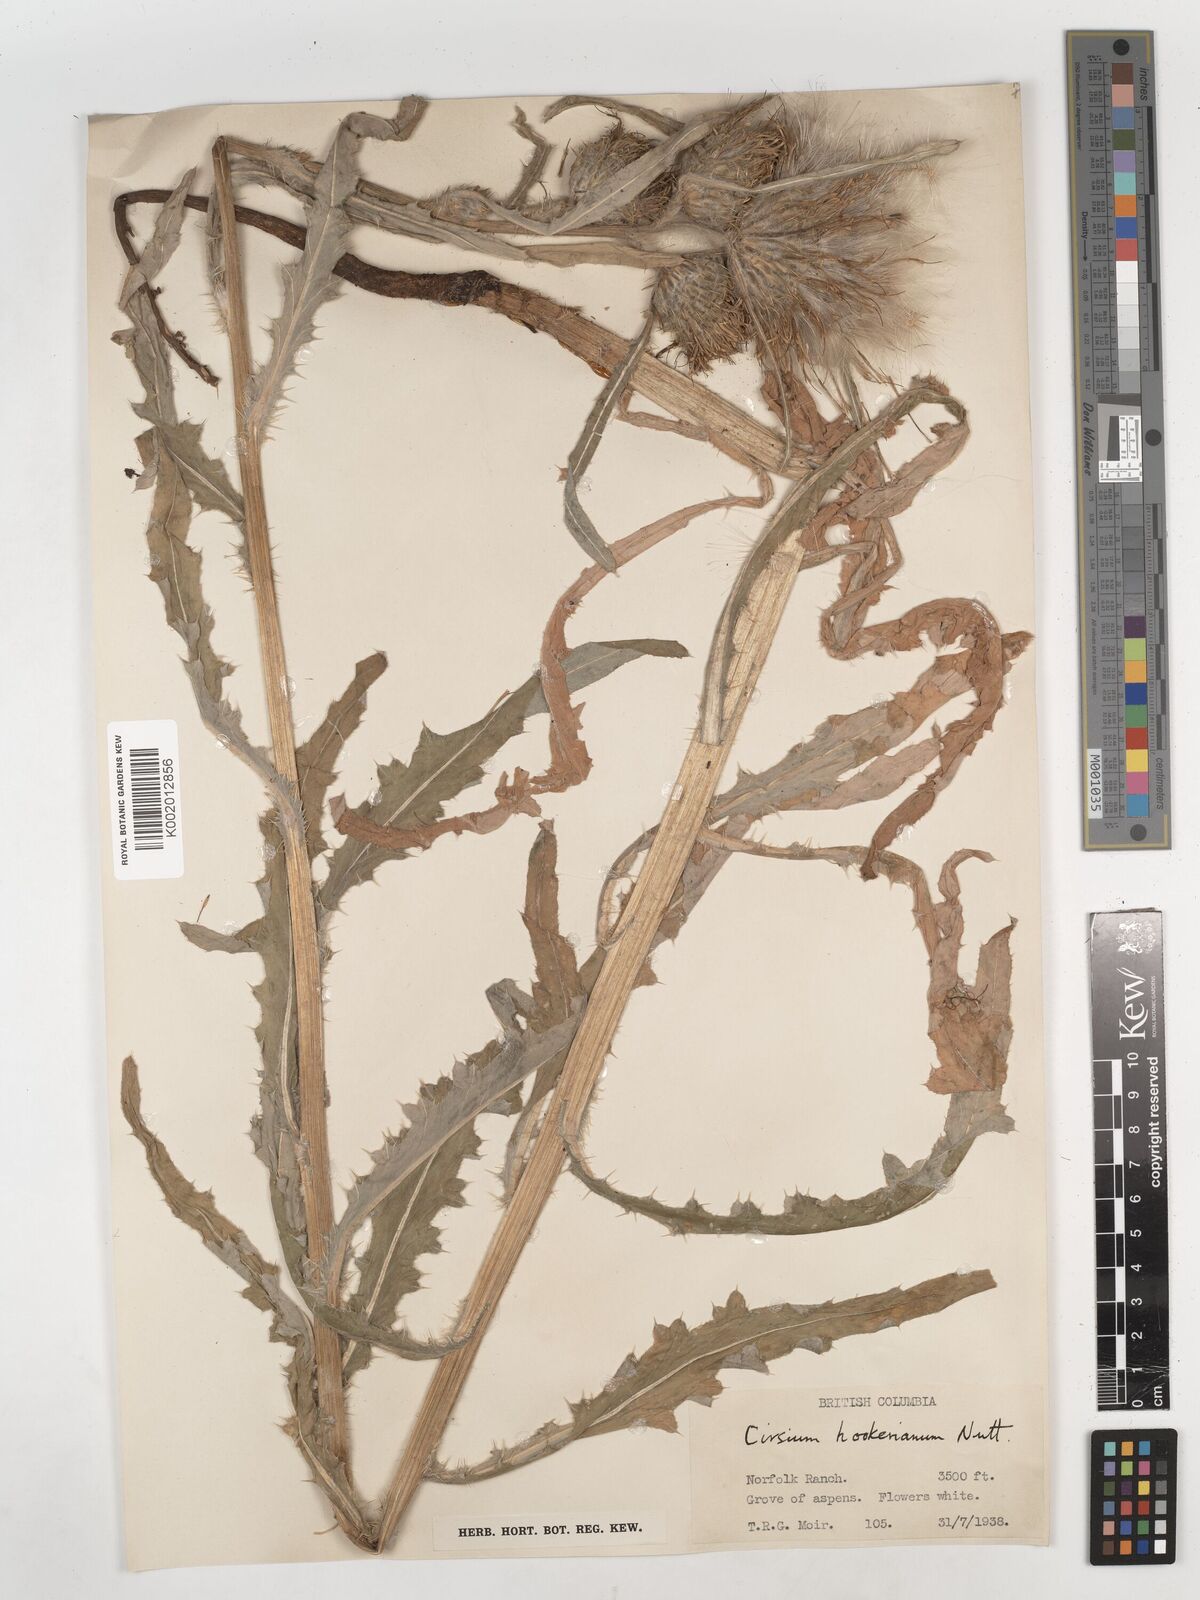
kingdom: Plantae
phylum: Tracheophyta
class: Magnoliopsida
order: Asterales
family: Asteraceae
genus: Cirsium
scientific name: Cirsium hookerianum
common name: Hooker's thistle
